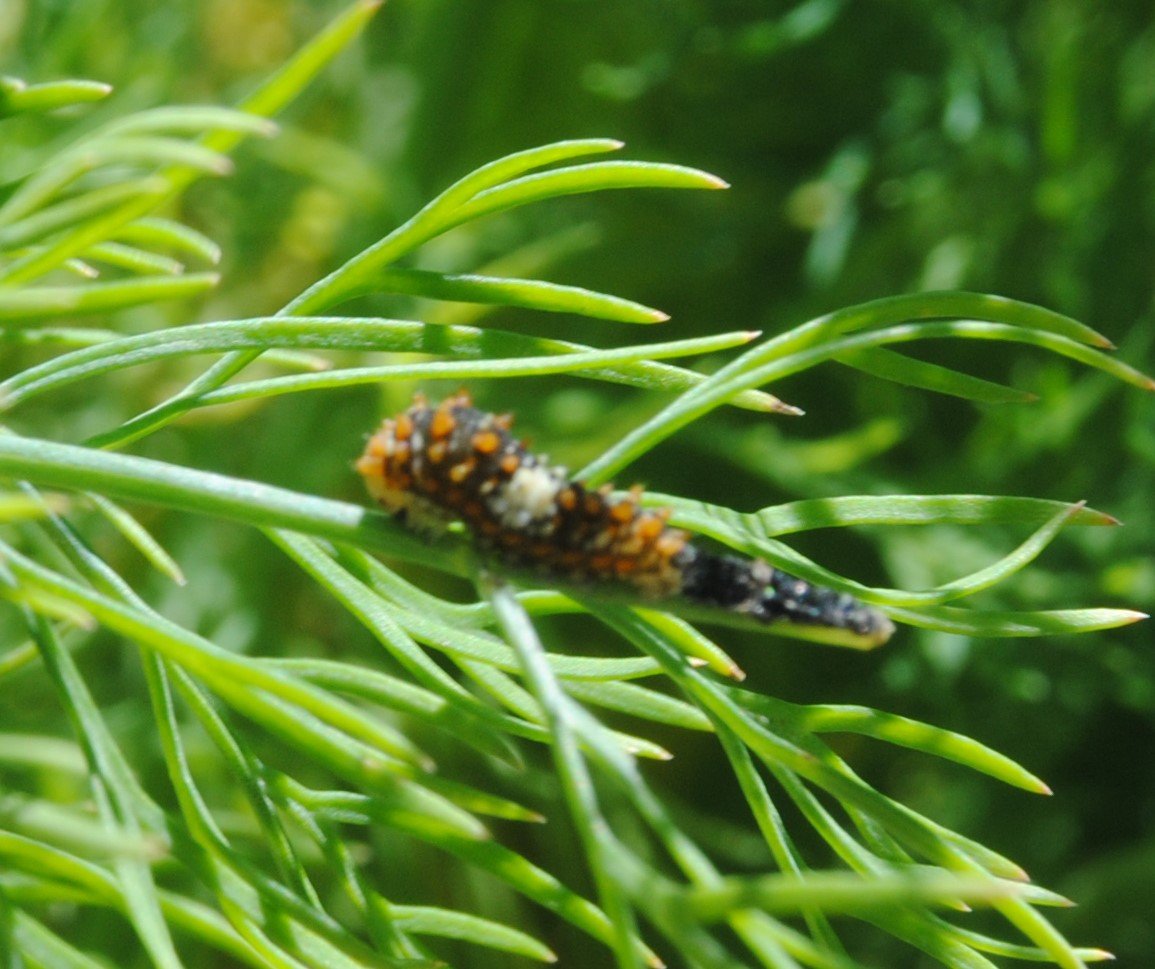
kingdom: Animalia
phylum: Arthropoda
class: Insecta
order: Lepidoptera
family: Papilionidae
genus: Papilio
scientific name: Papilio polyxenes
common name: Black Swallowtail
